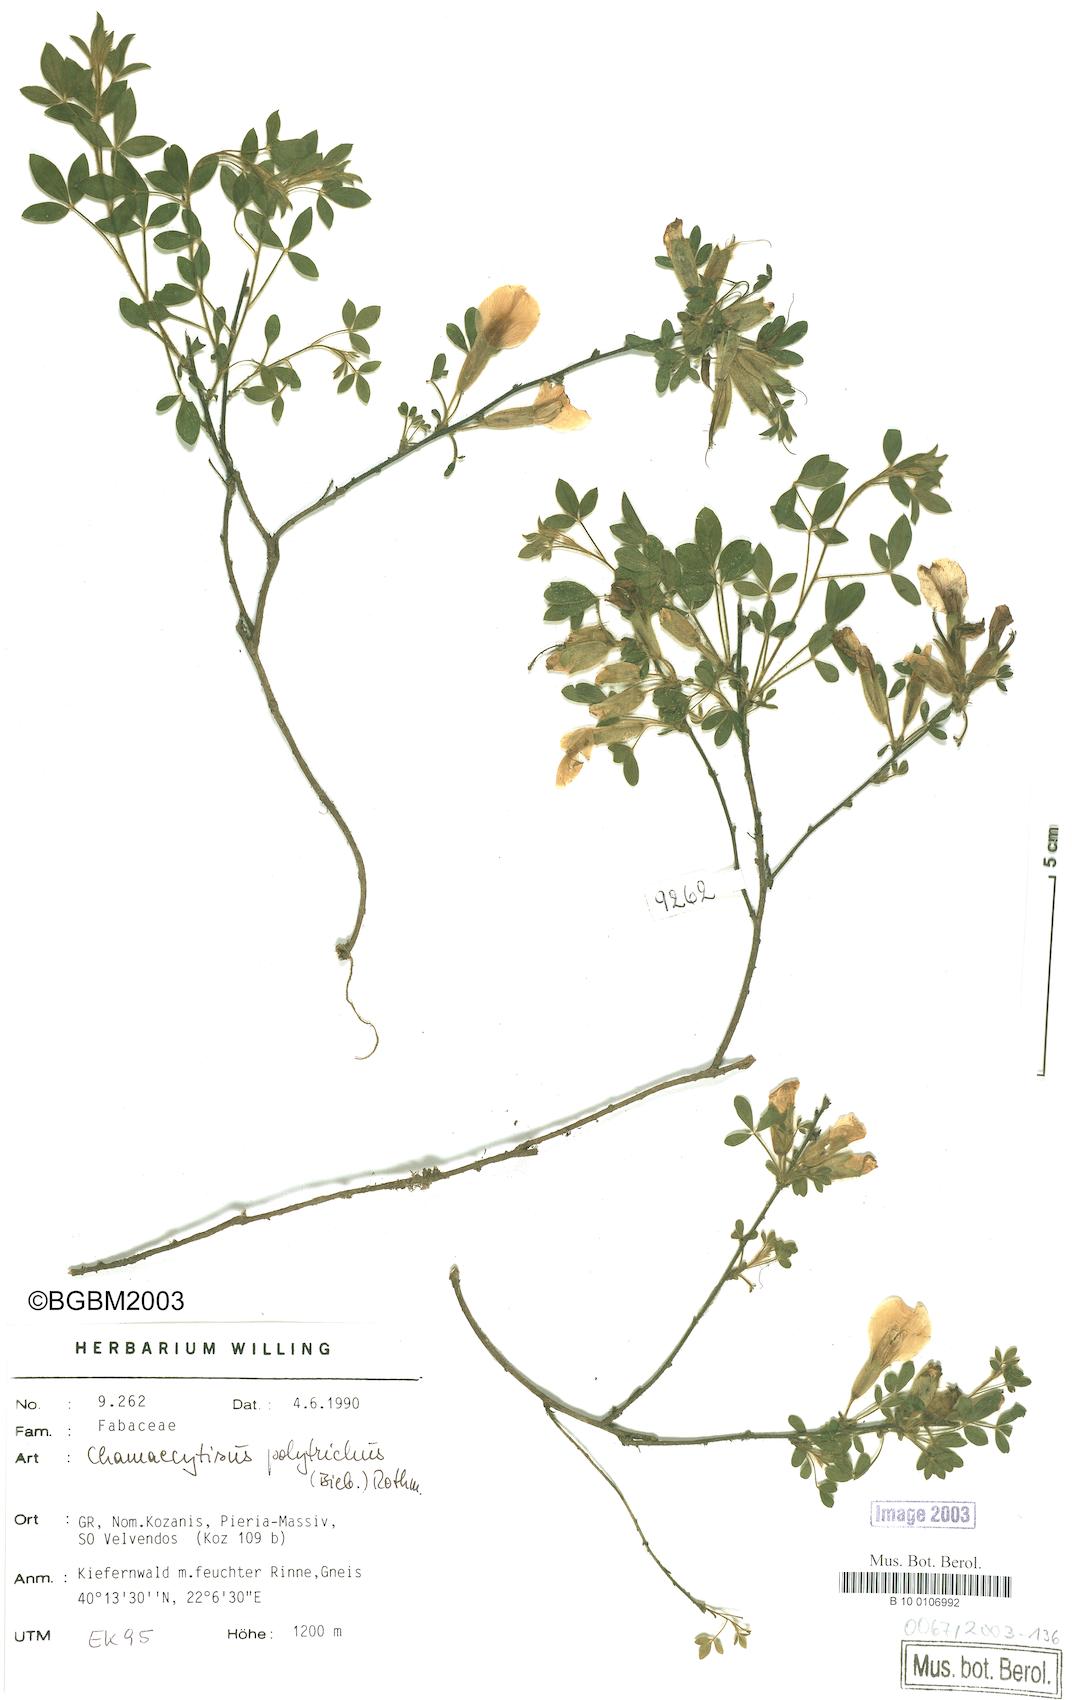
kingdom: Plantae
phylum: Tracheophyta
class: Magnoliopsida
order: Fabales
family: Fabaceae
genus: Chamaecytisus
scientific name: Chamaecytisus hirsutus
